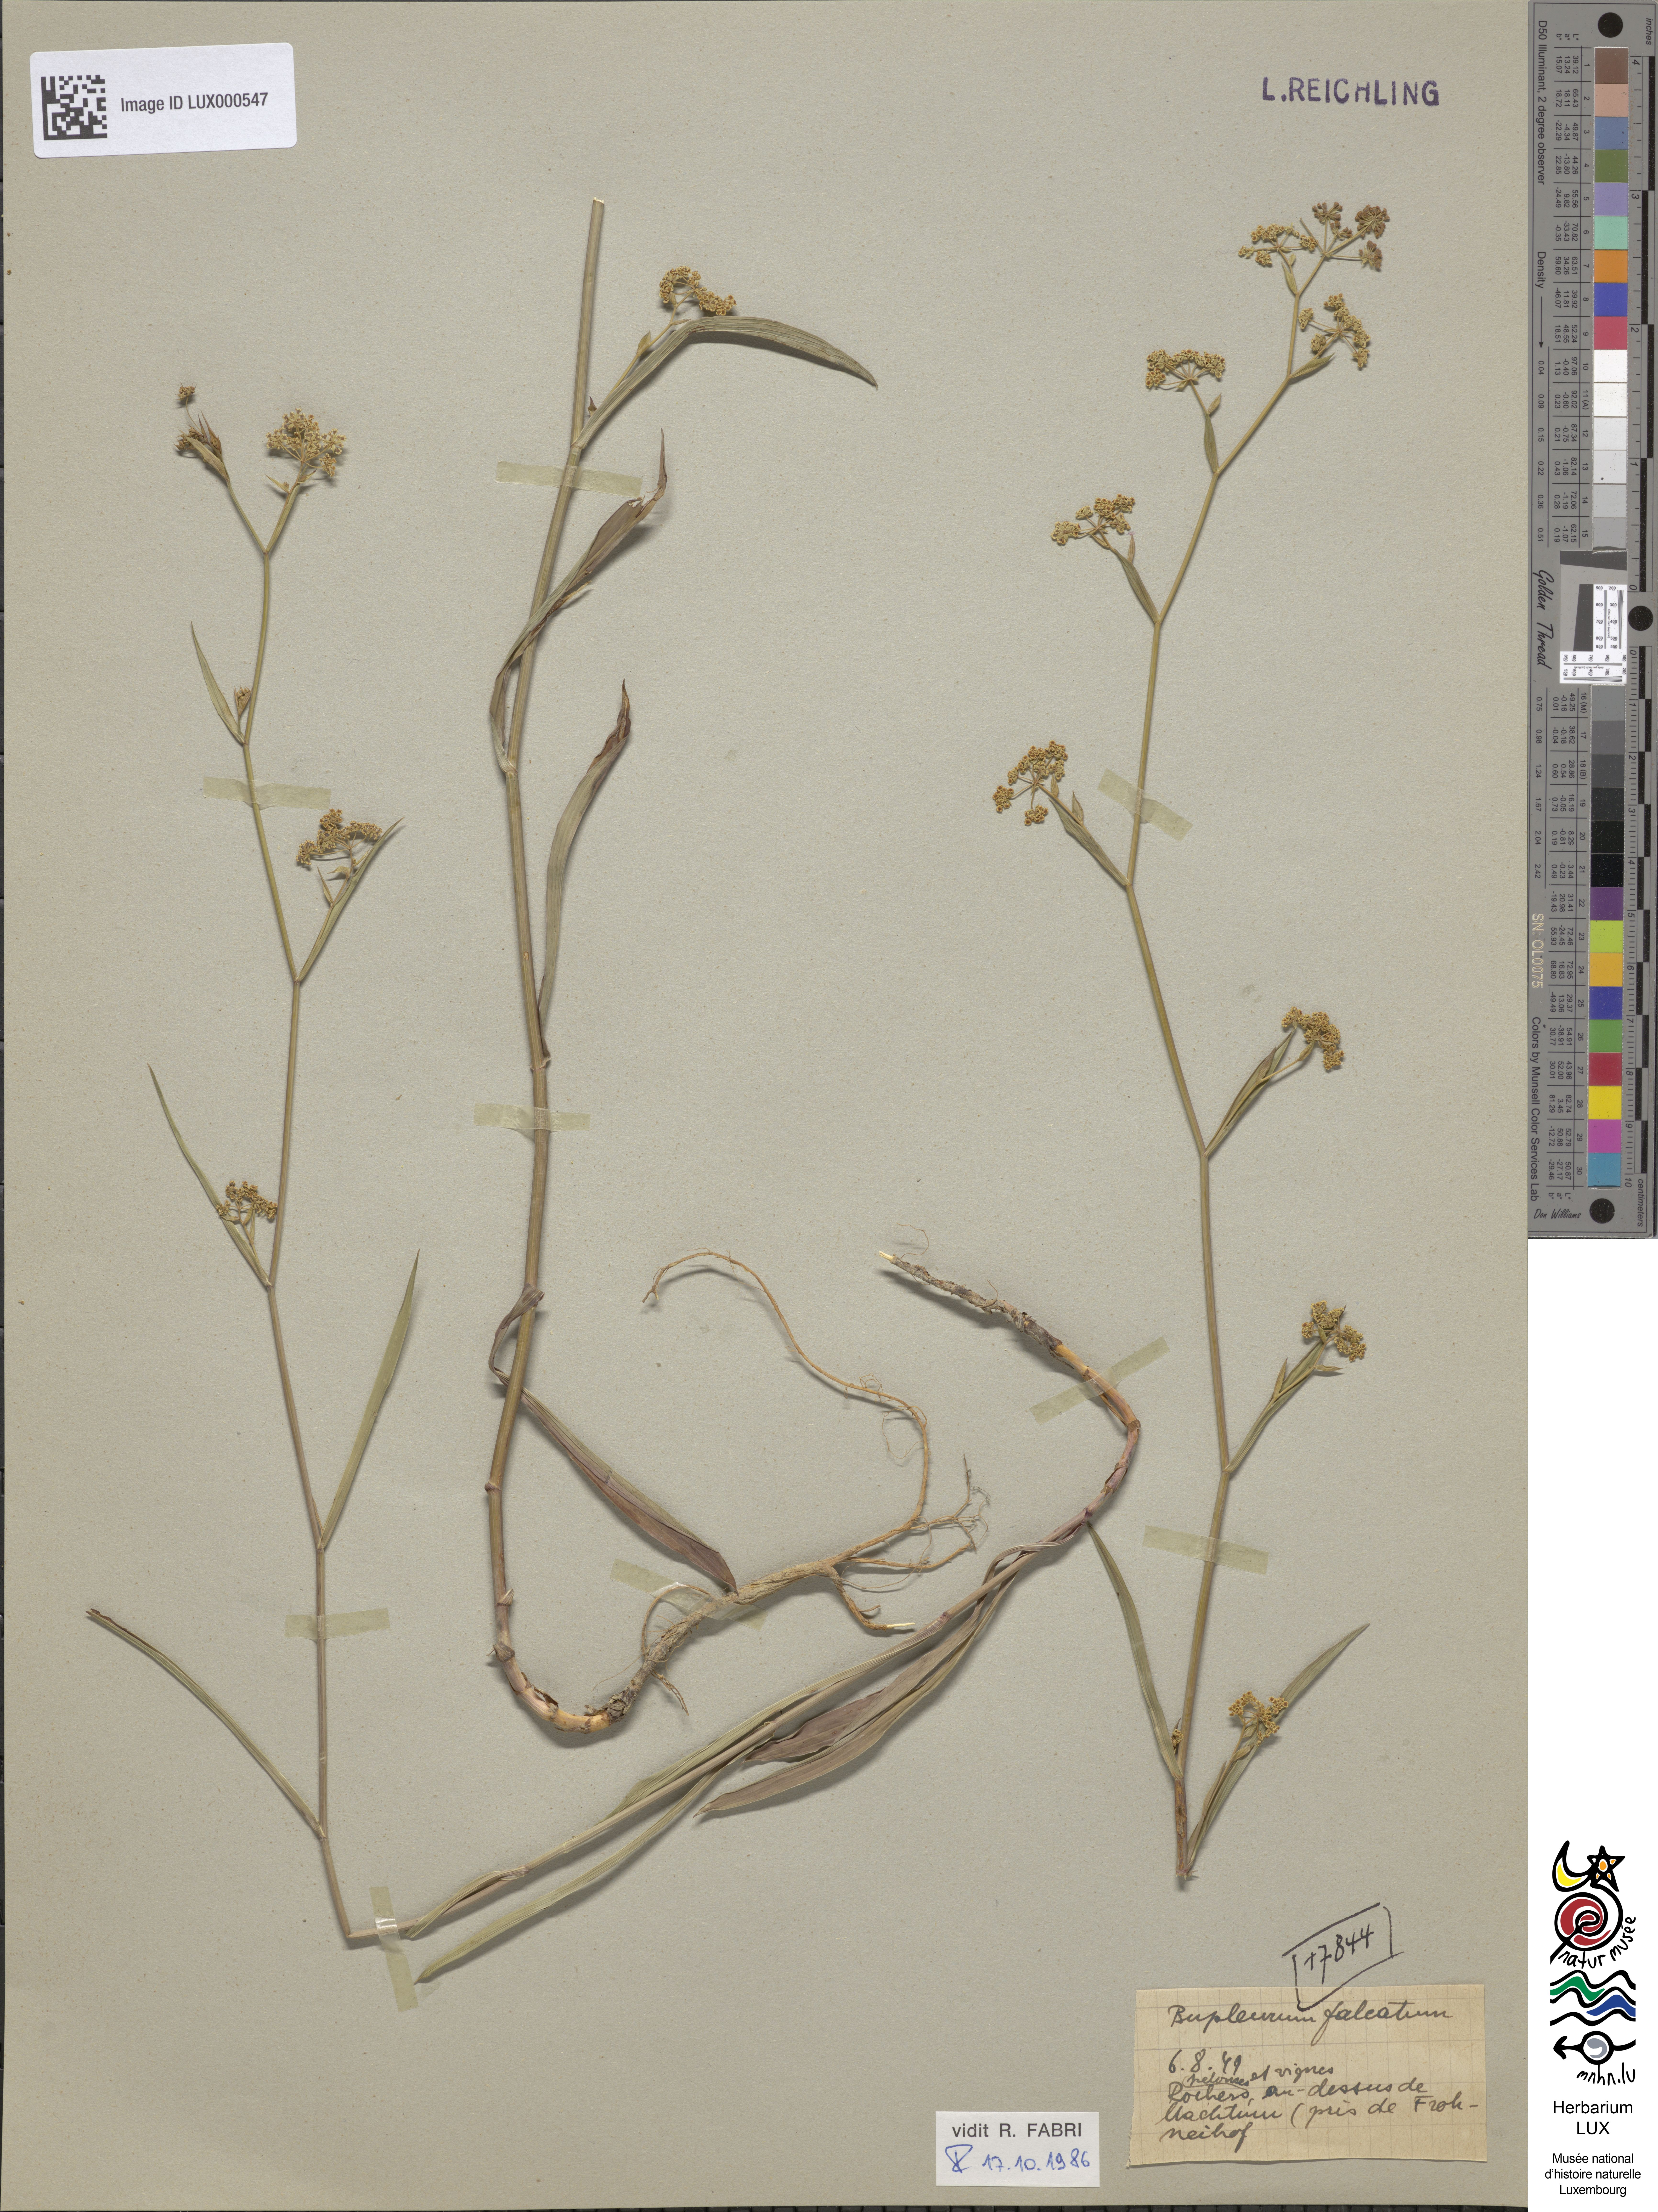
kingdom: Plantae
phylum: Tracheophyta
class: Magnoliopsida
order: Apiales
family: Apiaceae
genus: Bupleurum
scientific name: Bupleurum falcatum
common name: Sickle-leaved hare's-ear
